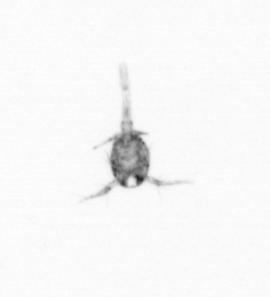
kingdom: Animalia
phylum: Arthropoda
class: Copepoda
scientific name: Copepoda
